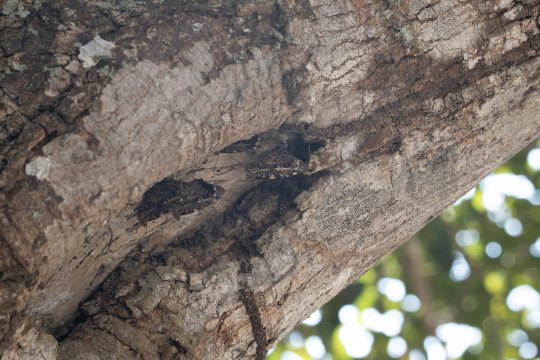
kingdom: Animalia
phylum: Arthropoda
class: Insecta
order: Lepidoptera
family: Nymphalidae
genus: Smyrna
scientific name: Smyrna blomfildia
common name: Blomfild's Beauty
